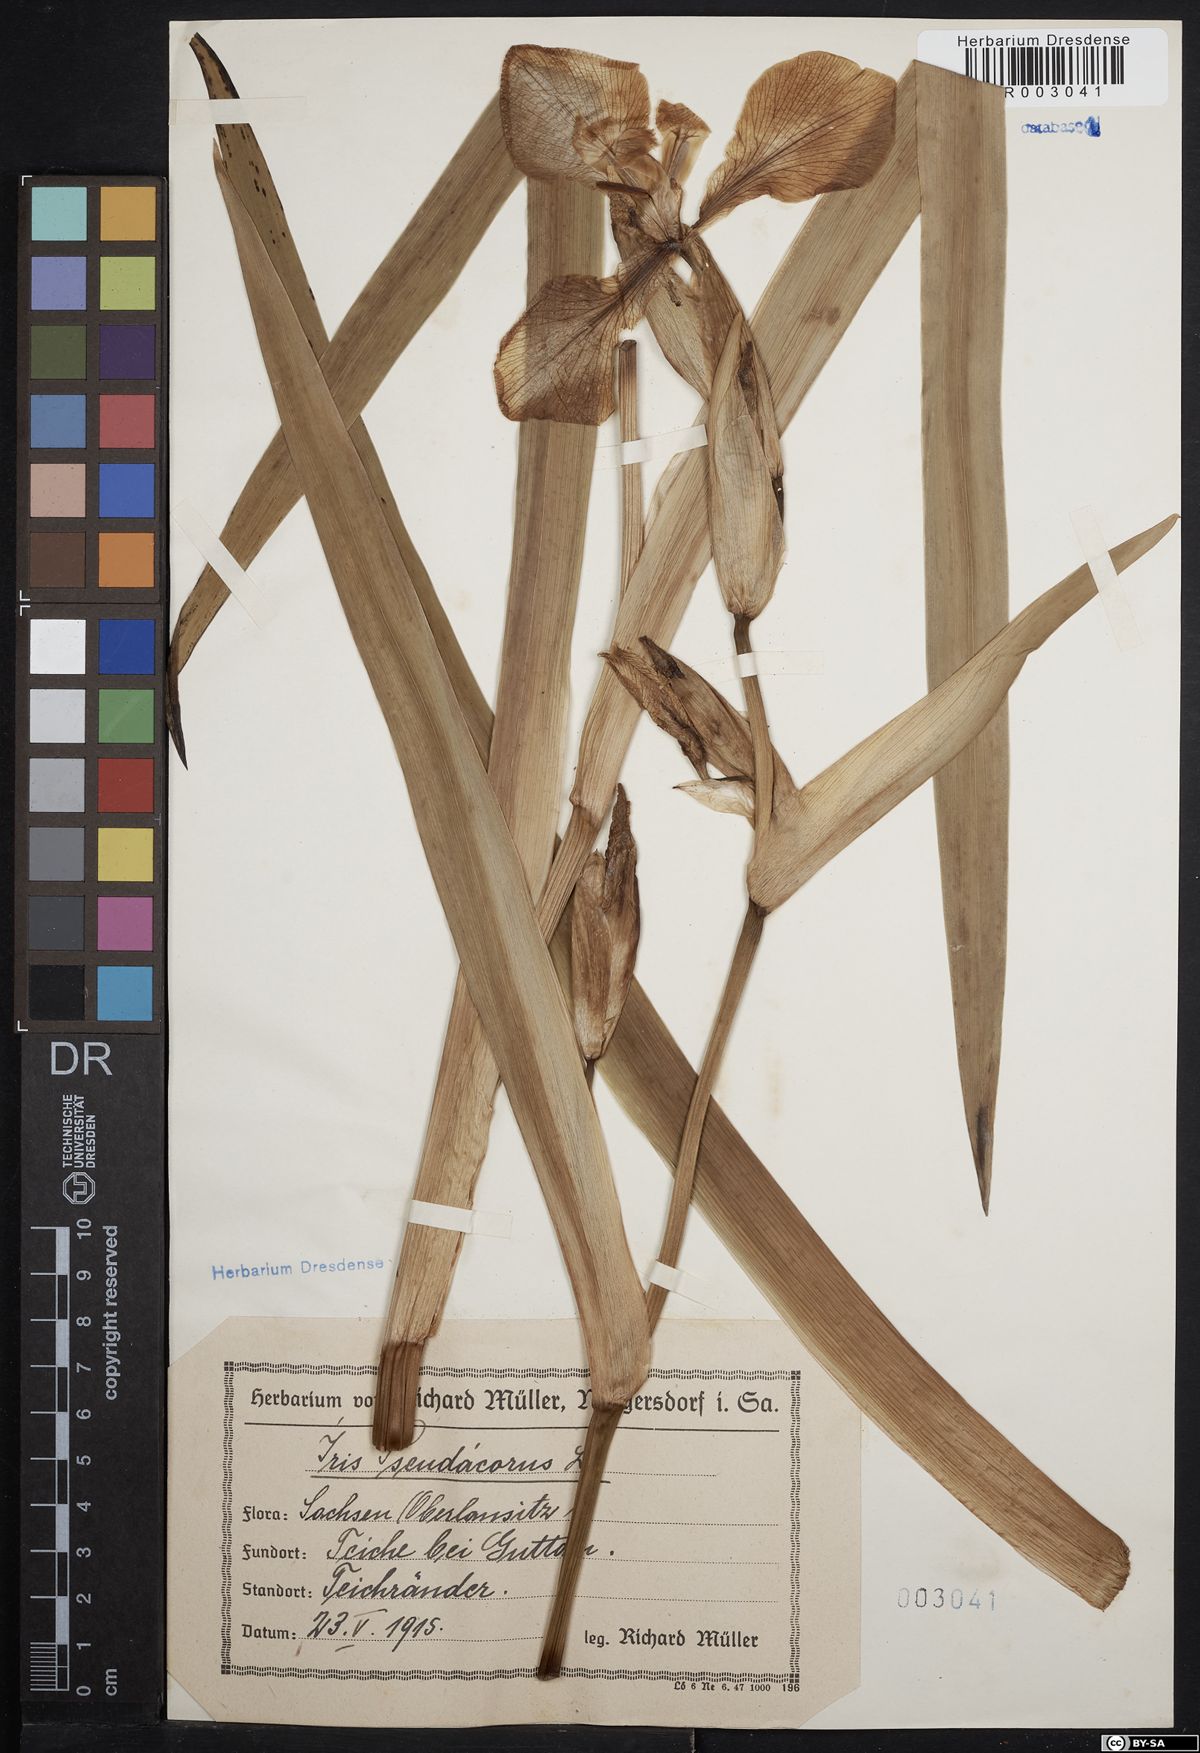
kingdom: Plantae
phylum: Tracheophyta
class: Liliopsida
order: Asparagales
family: Iridaceae
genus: Iris
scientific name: Iris pseudacorus
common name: Yellow flag
